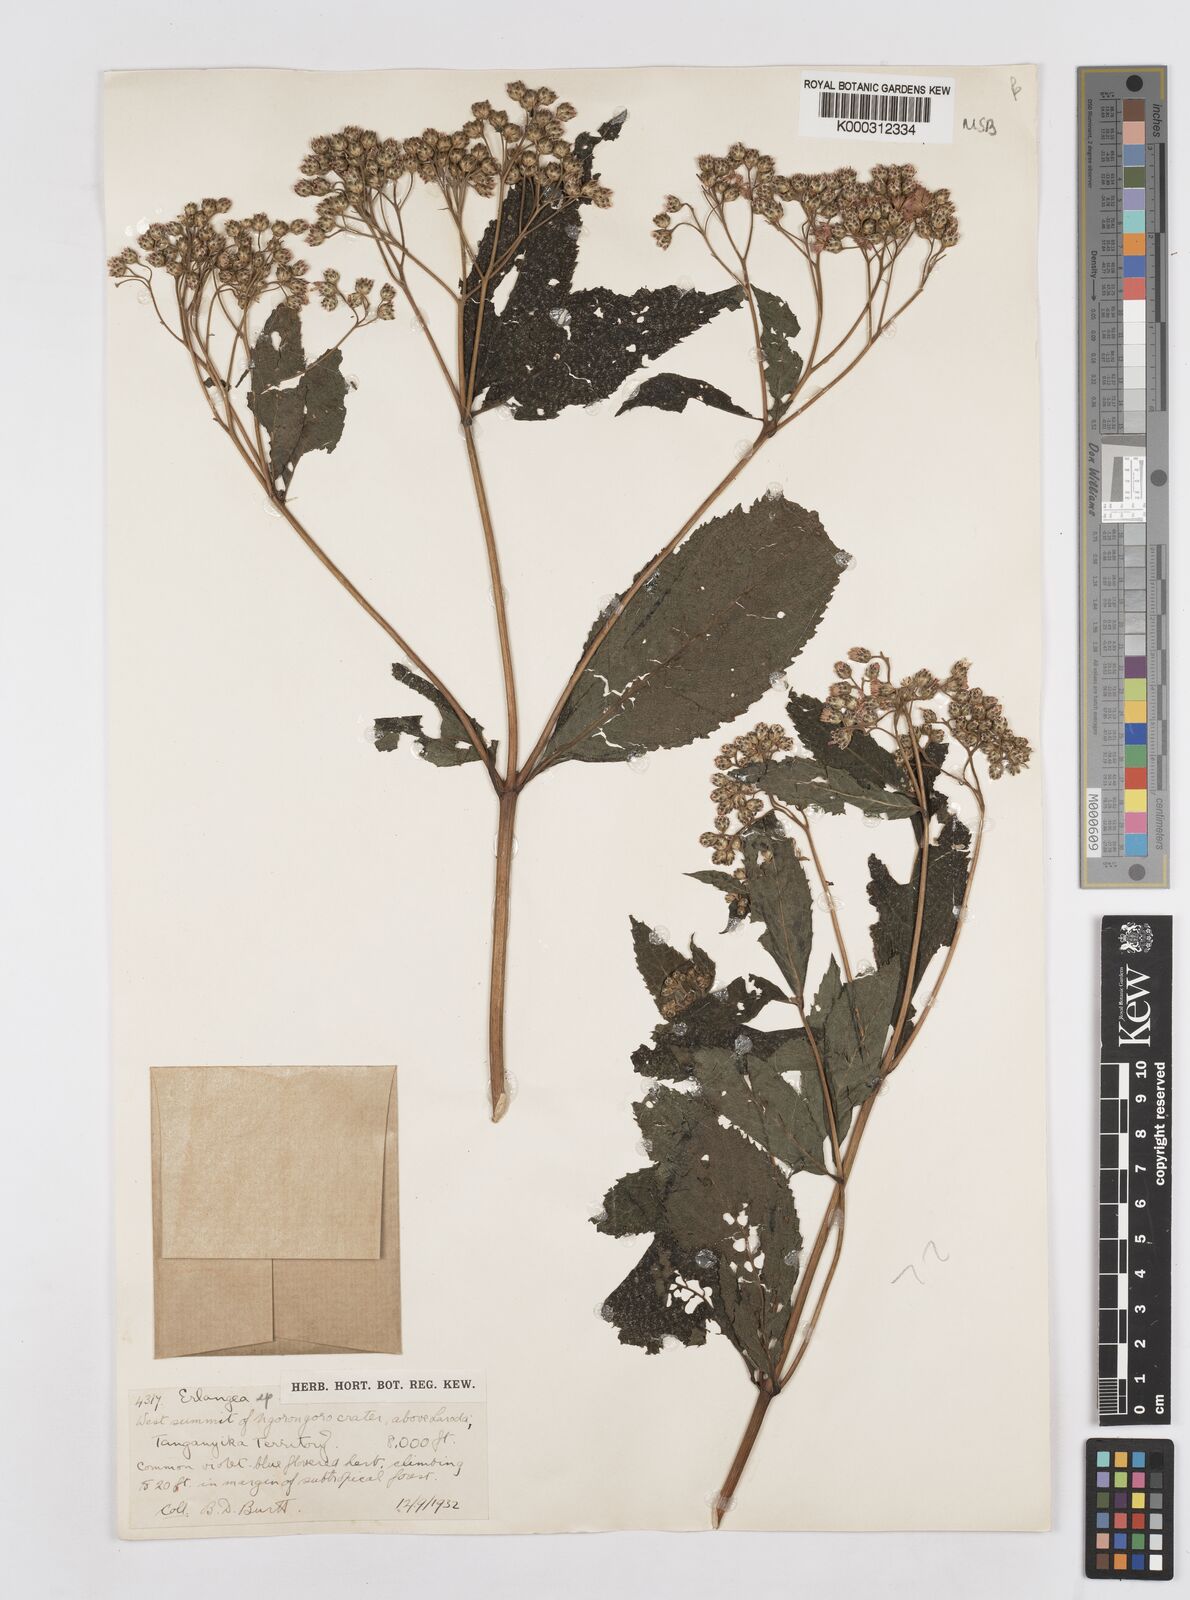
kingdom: Plantae
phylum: Tracheophyta
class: Magnoliopsida
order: Asterales
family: Asteraceae
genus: Bothriocline
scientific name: Bothriocline glabrescens
